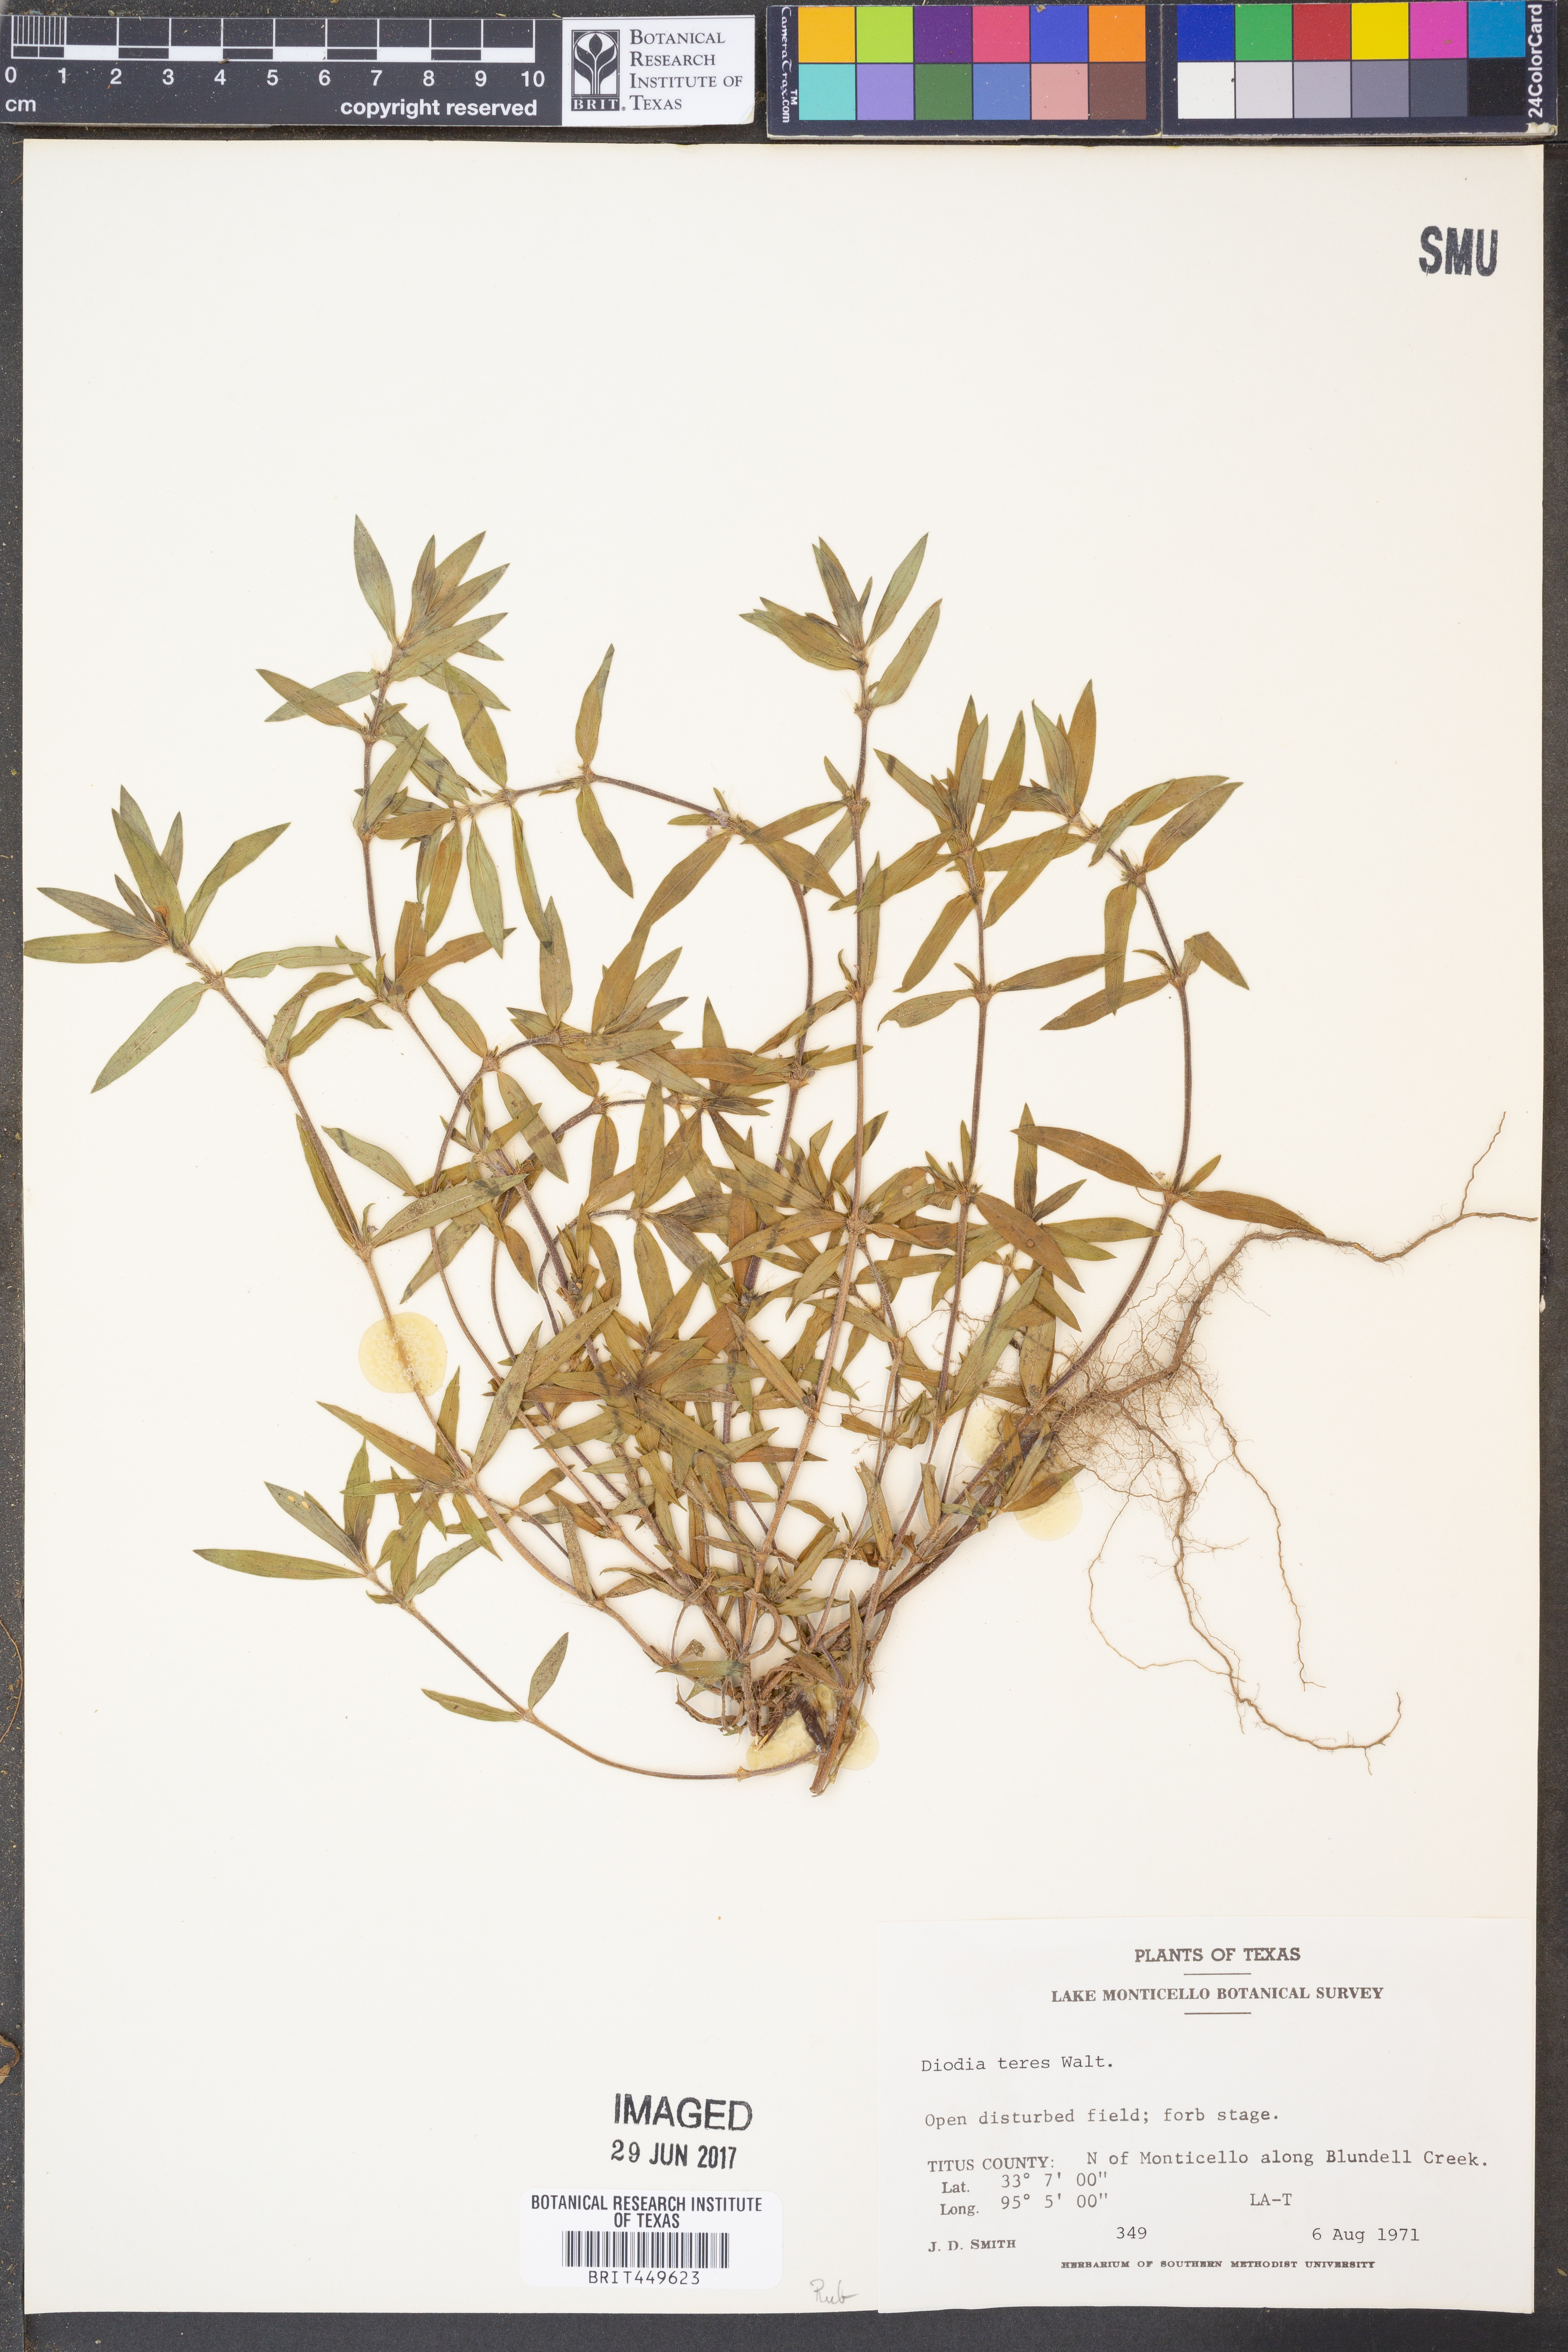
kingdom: Plantae
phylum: Tracheophyta
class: Magnoliopsida
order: Gentianales
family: Rubiaceae
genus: Hexasepalum
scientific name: Hexasepalum teres
